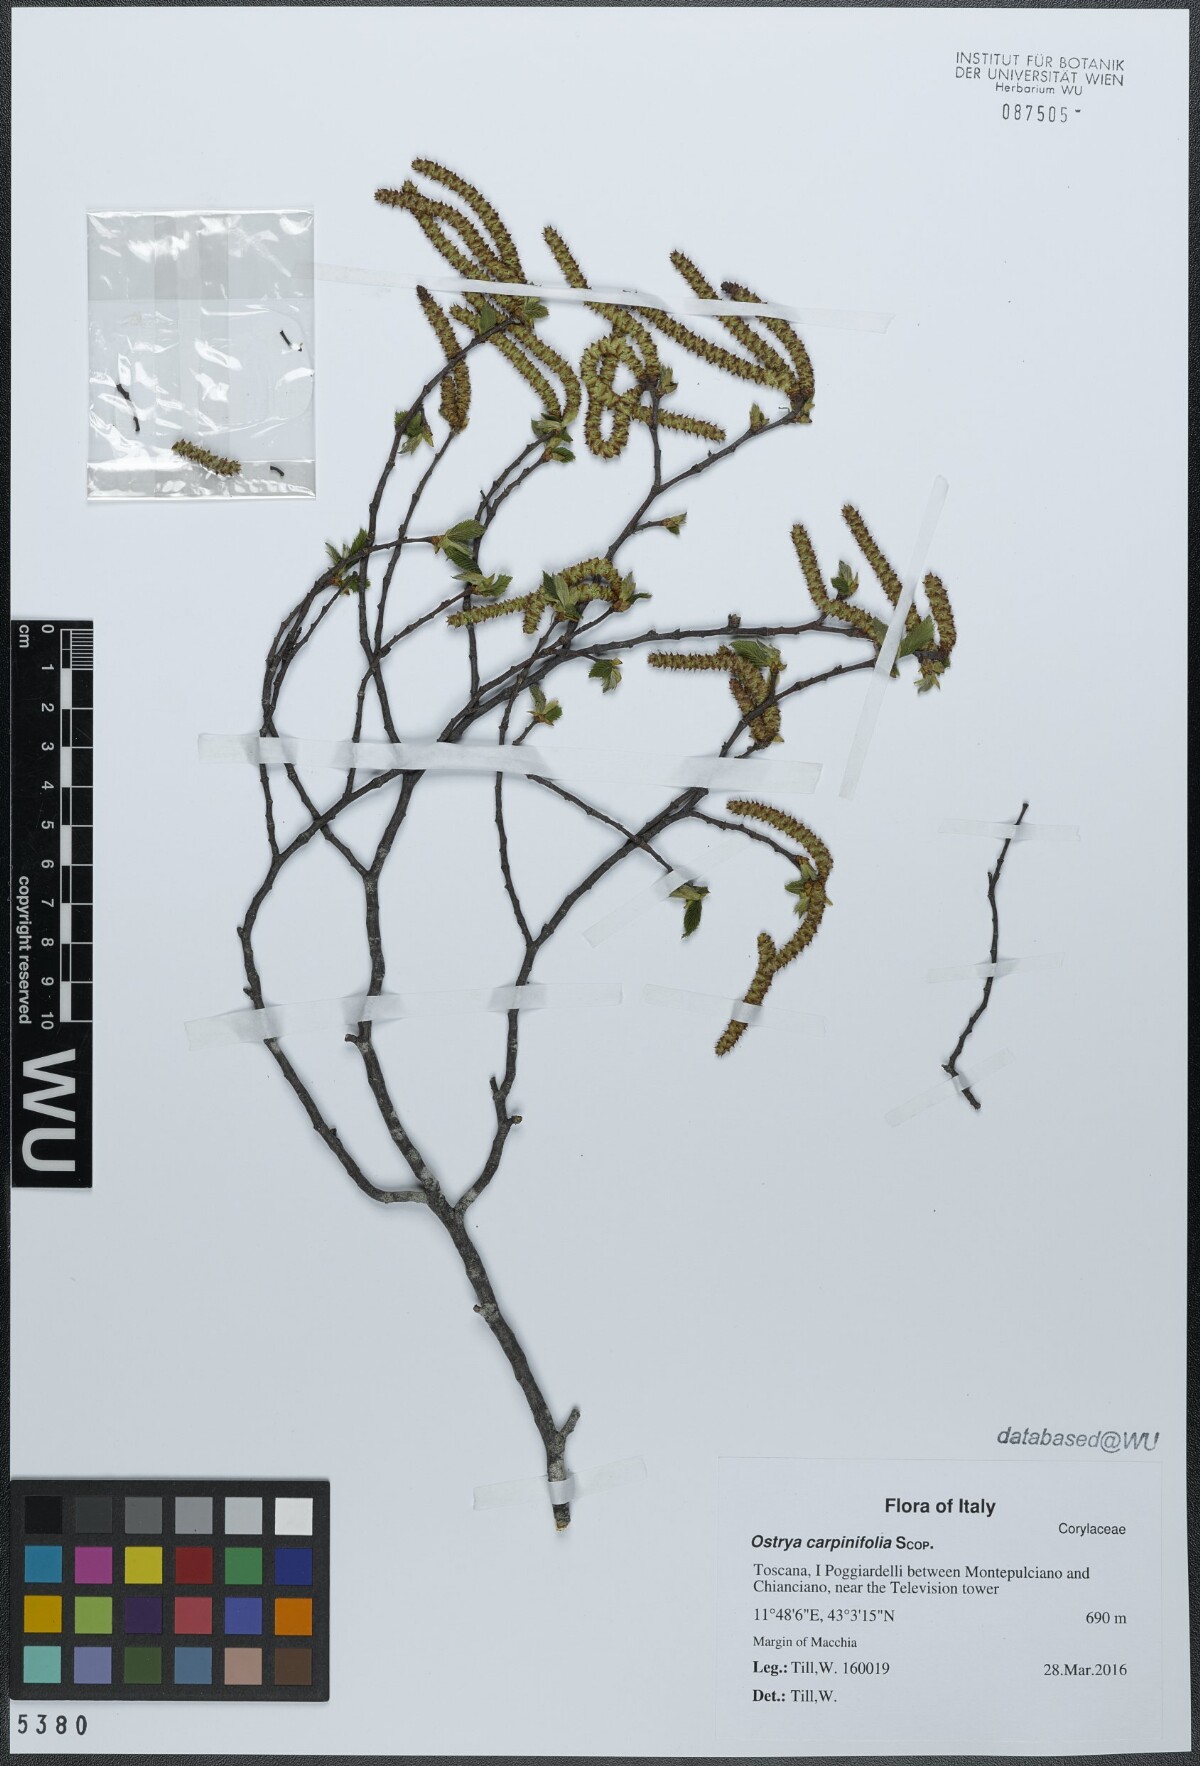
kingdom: Plantae
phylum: Tracheophyta
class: Magnoliopsida
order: Fagales
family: Betulaceae
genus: Ostrya
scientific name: Ostrya carpinifolia
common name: European hop-hornbeam
